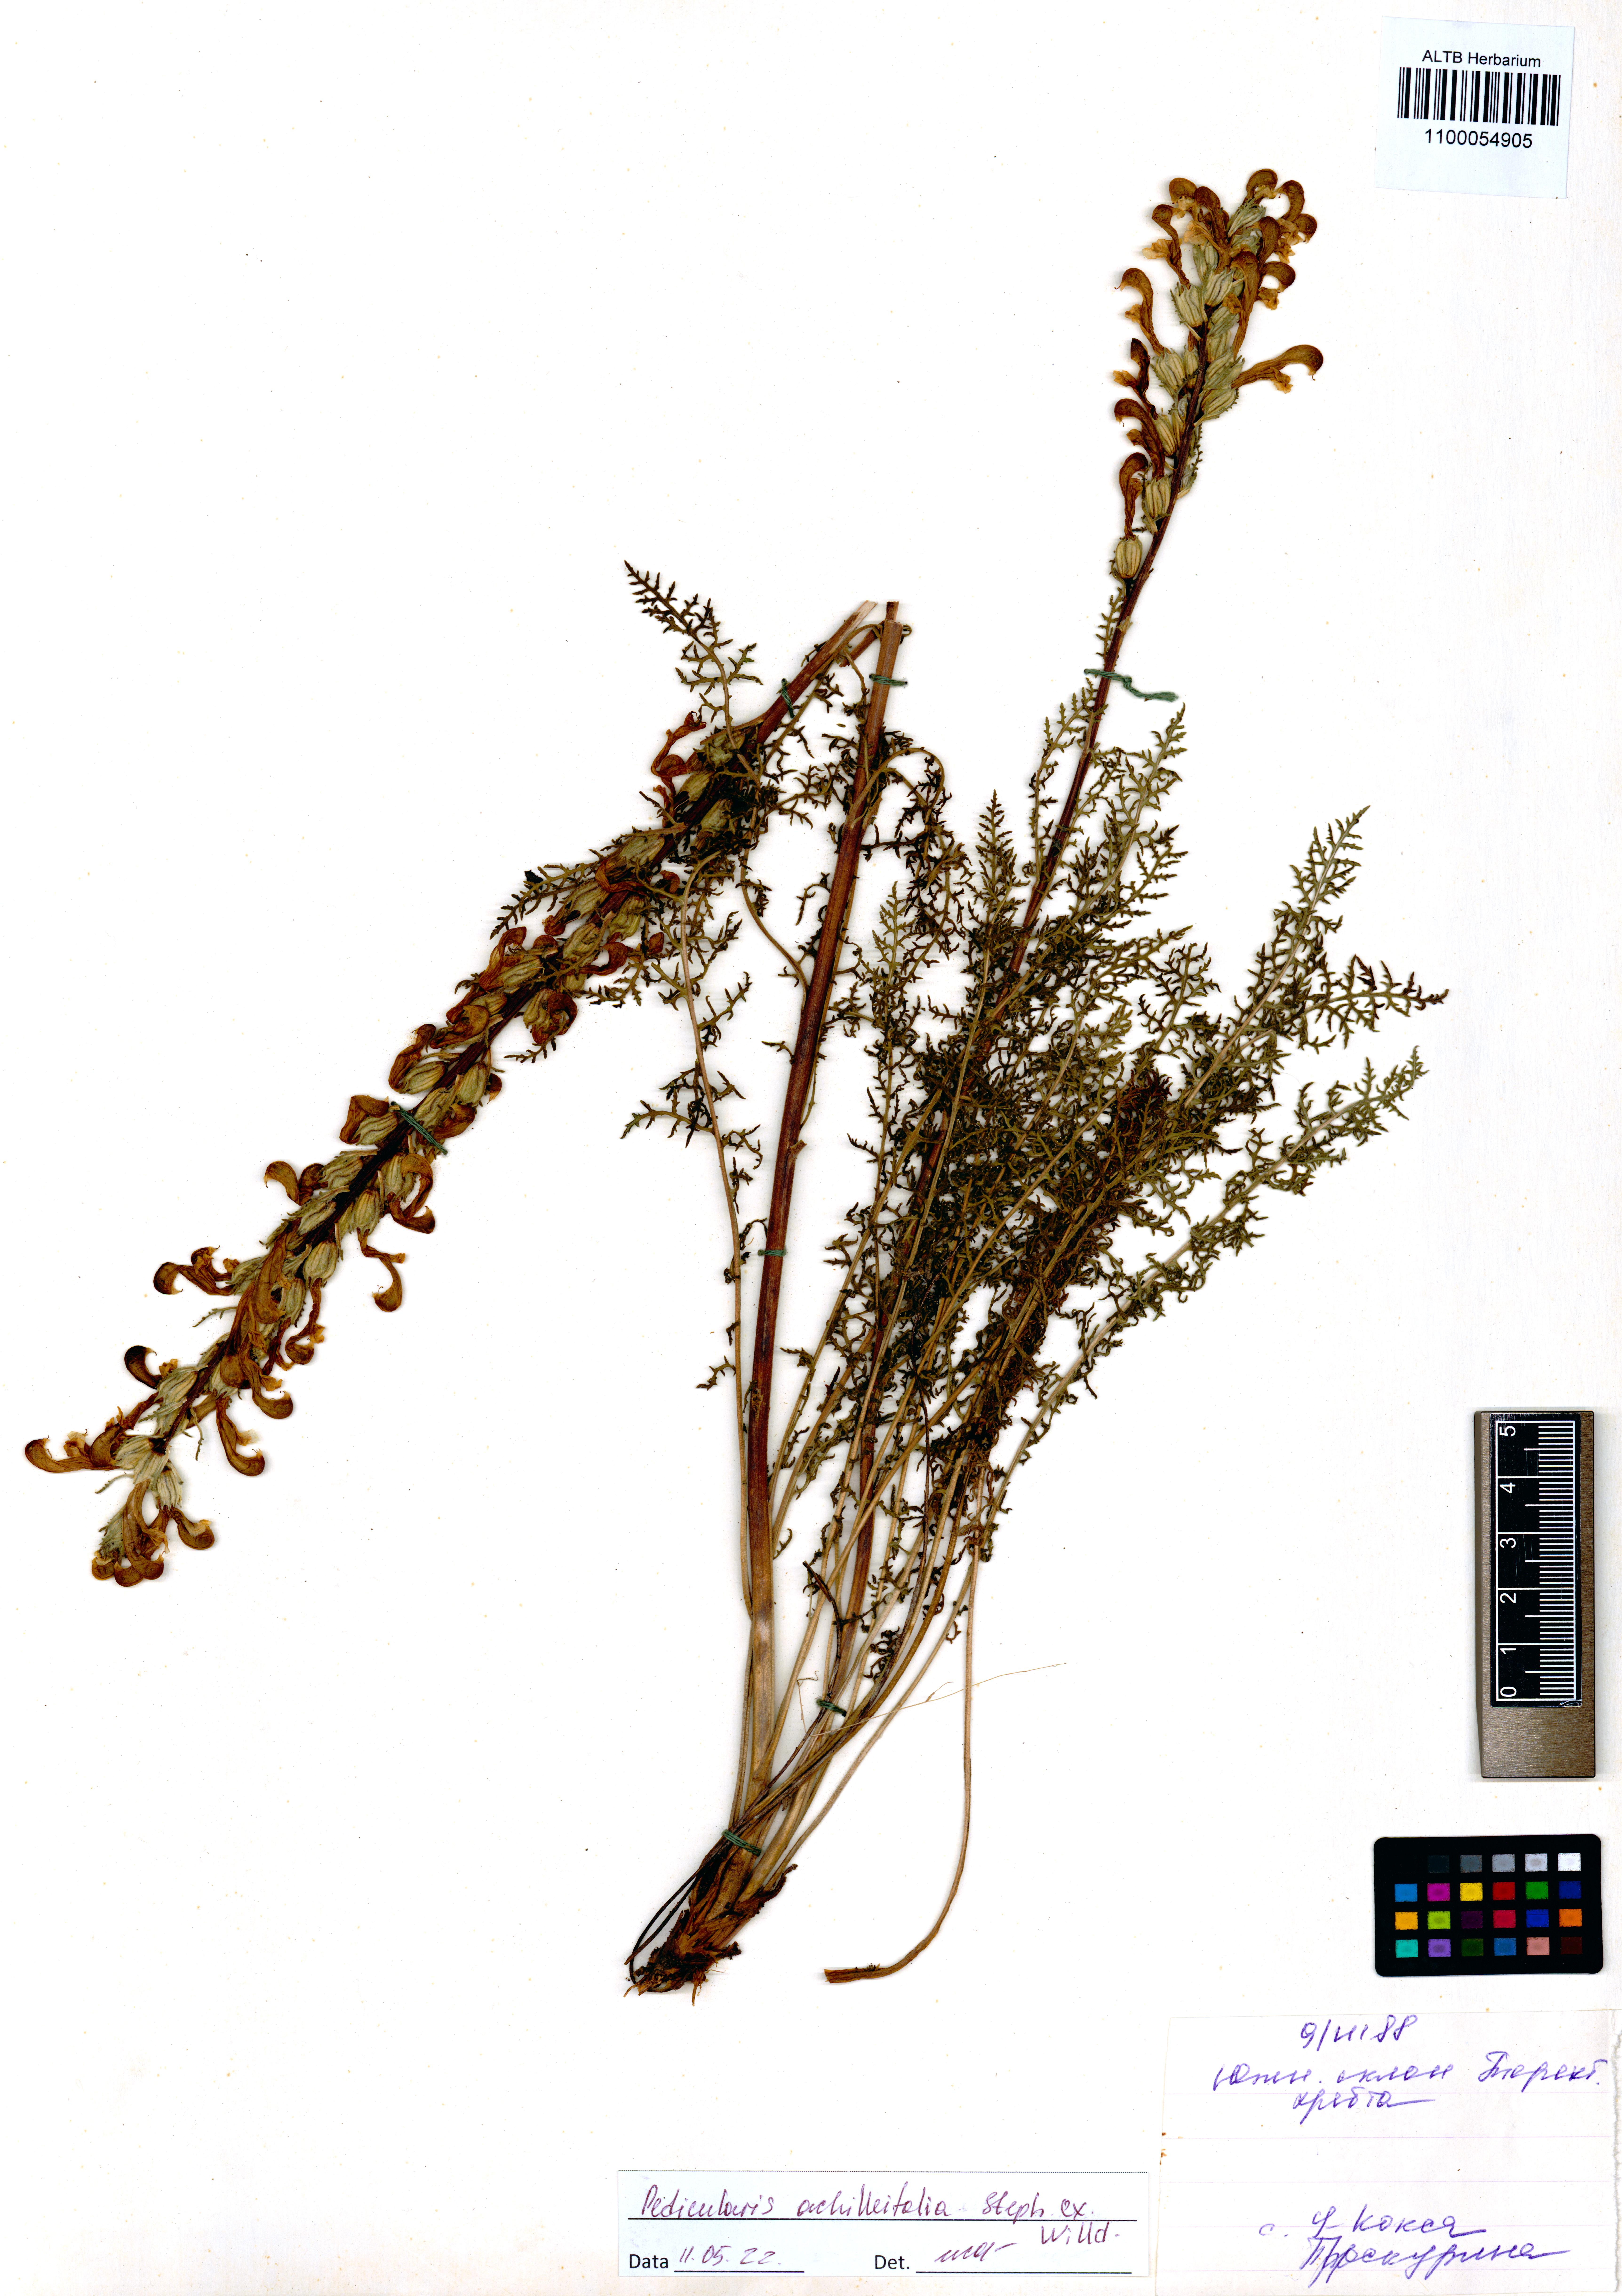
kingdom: Plantae
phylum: Tracheophyta
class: Magnoliopsida
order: Lamiales
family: Orobanchaceae
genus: Pedicularis
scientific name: Pedicularis achilleifolia
